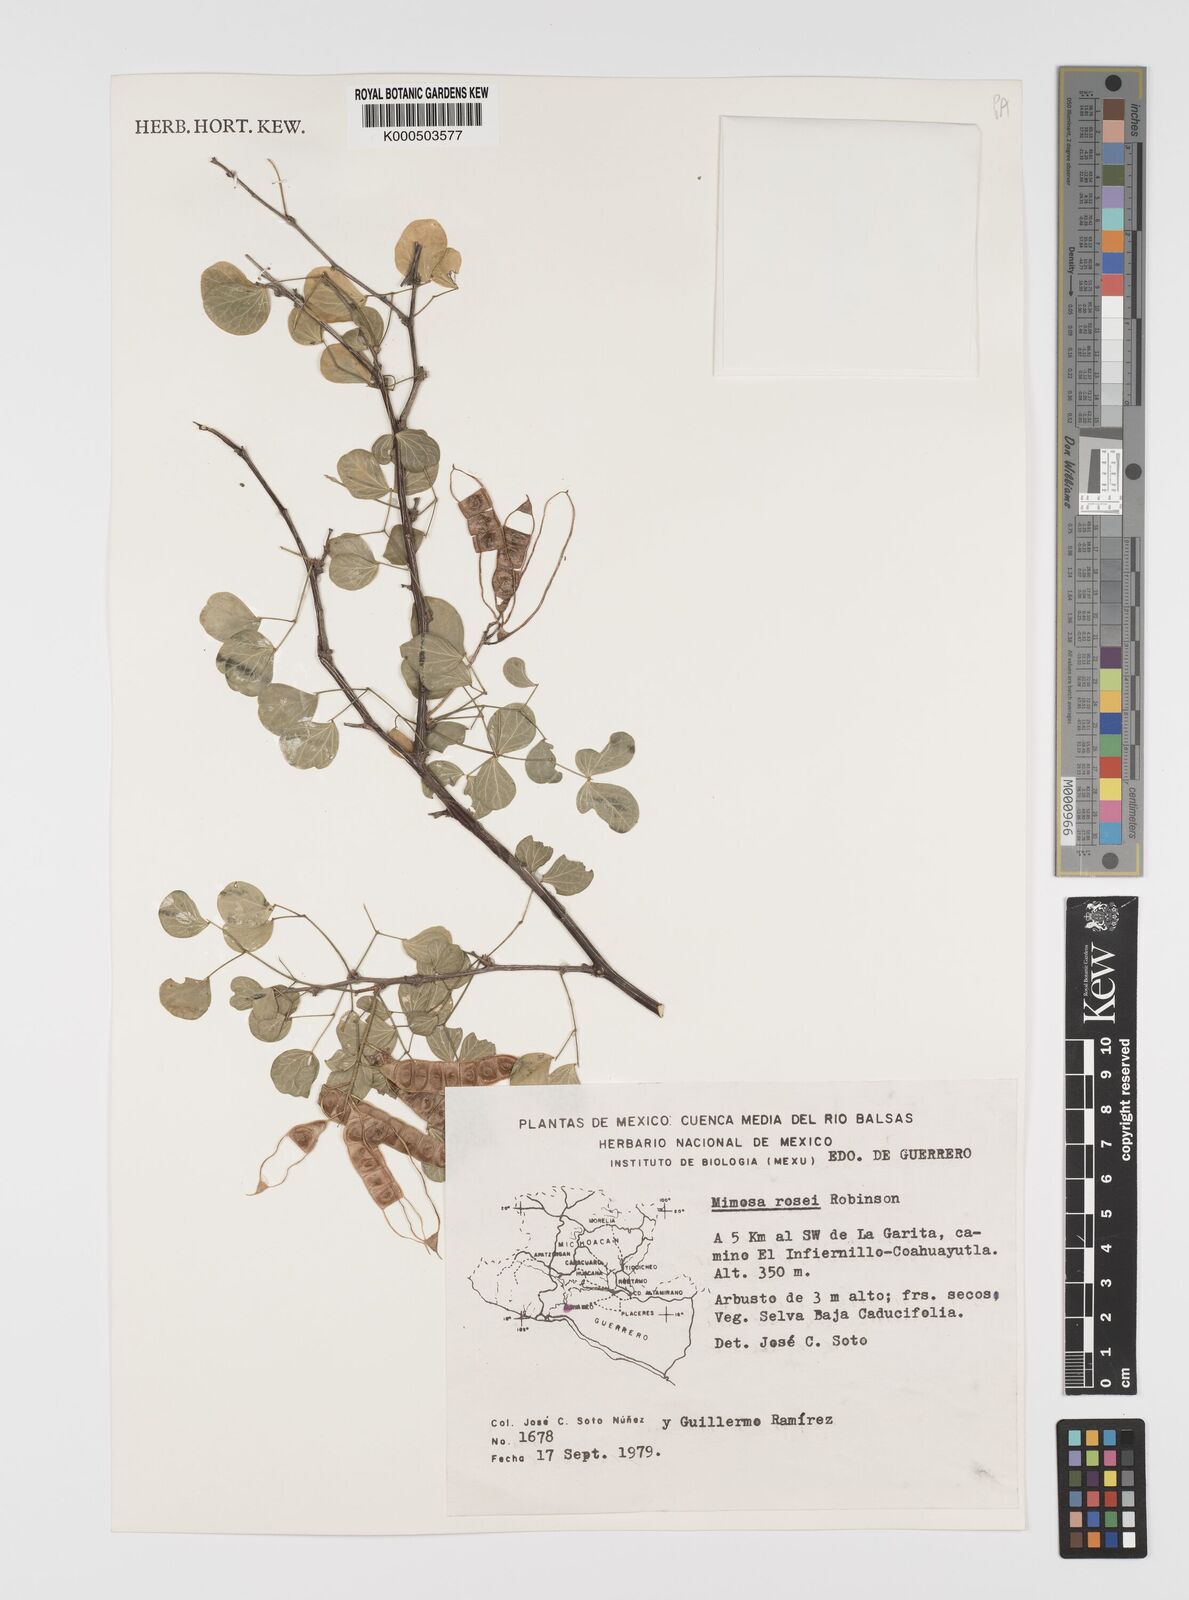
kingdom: Plantae
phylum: Tracheophyta
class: Magnoliopsida
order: Fabales
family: Fabaceae
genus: Mimosa
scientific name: Mimosa rosei
